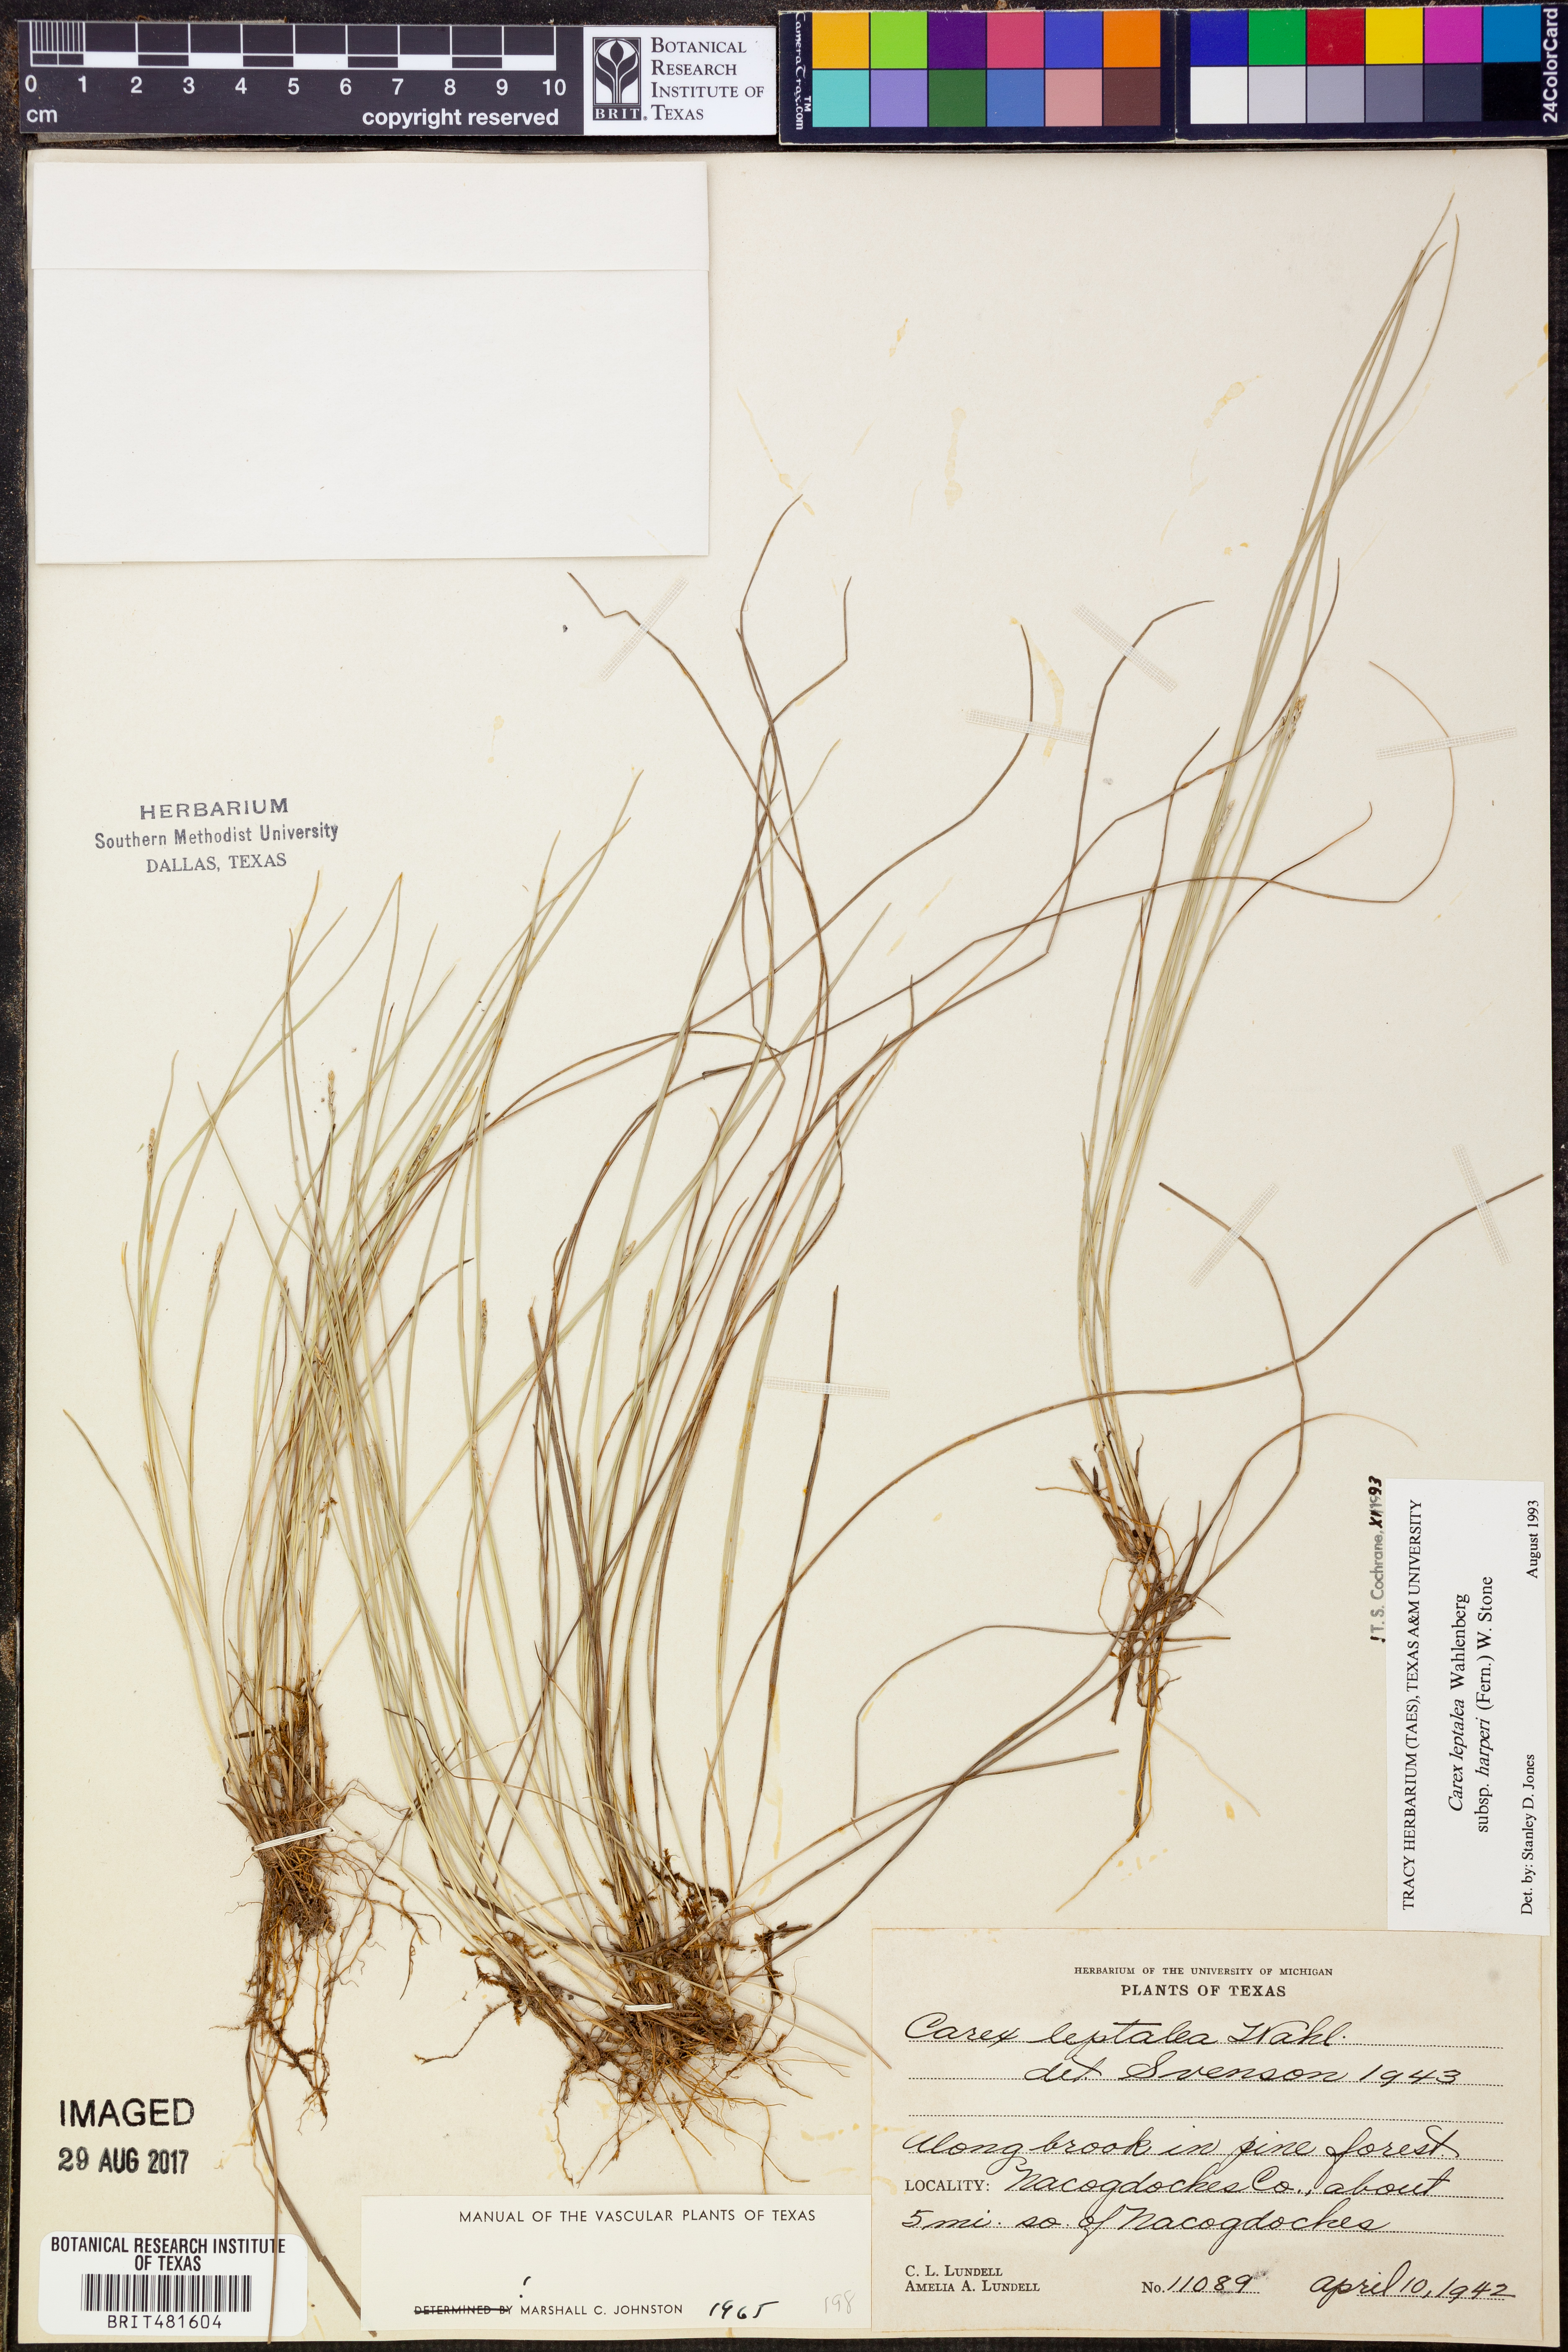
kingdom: Plantae
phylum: Tracheophyta
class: Liliopsida
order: Poales
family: Cyperaceae
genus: Carex
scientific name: Carex leptalea
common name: Bristly-stalked sedge
